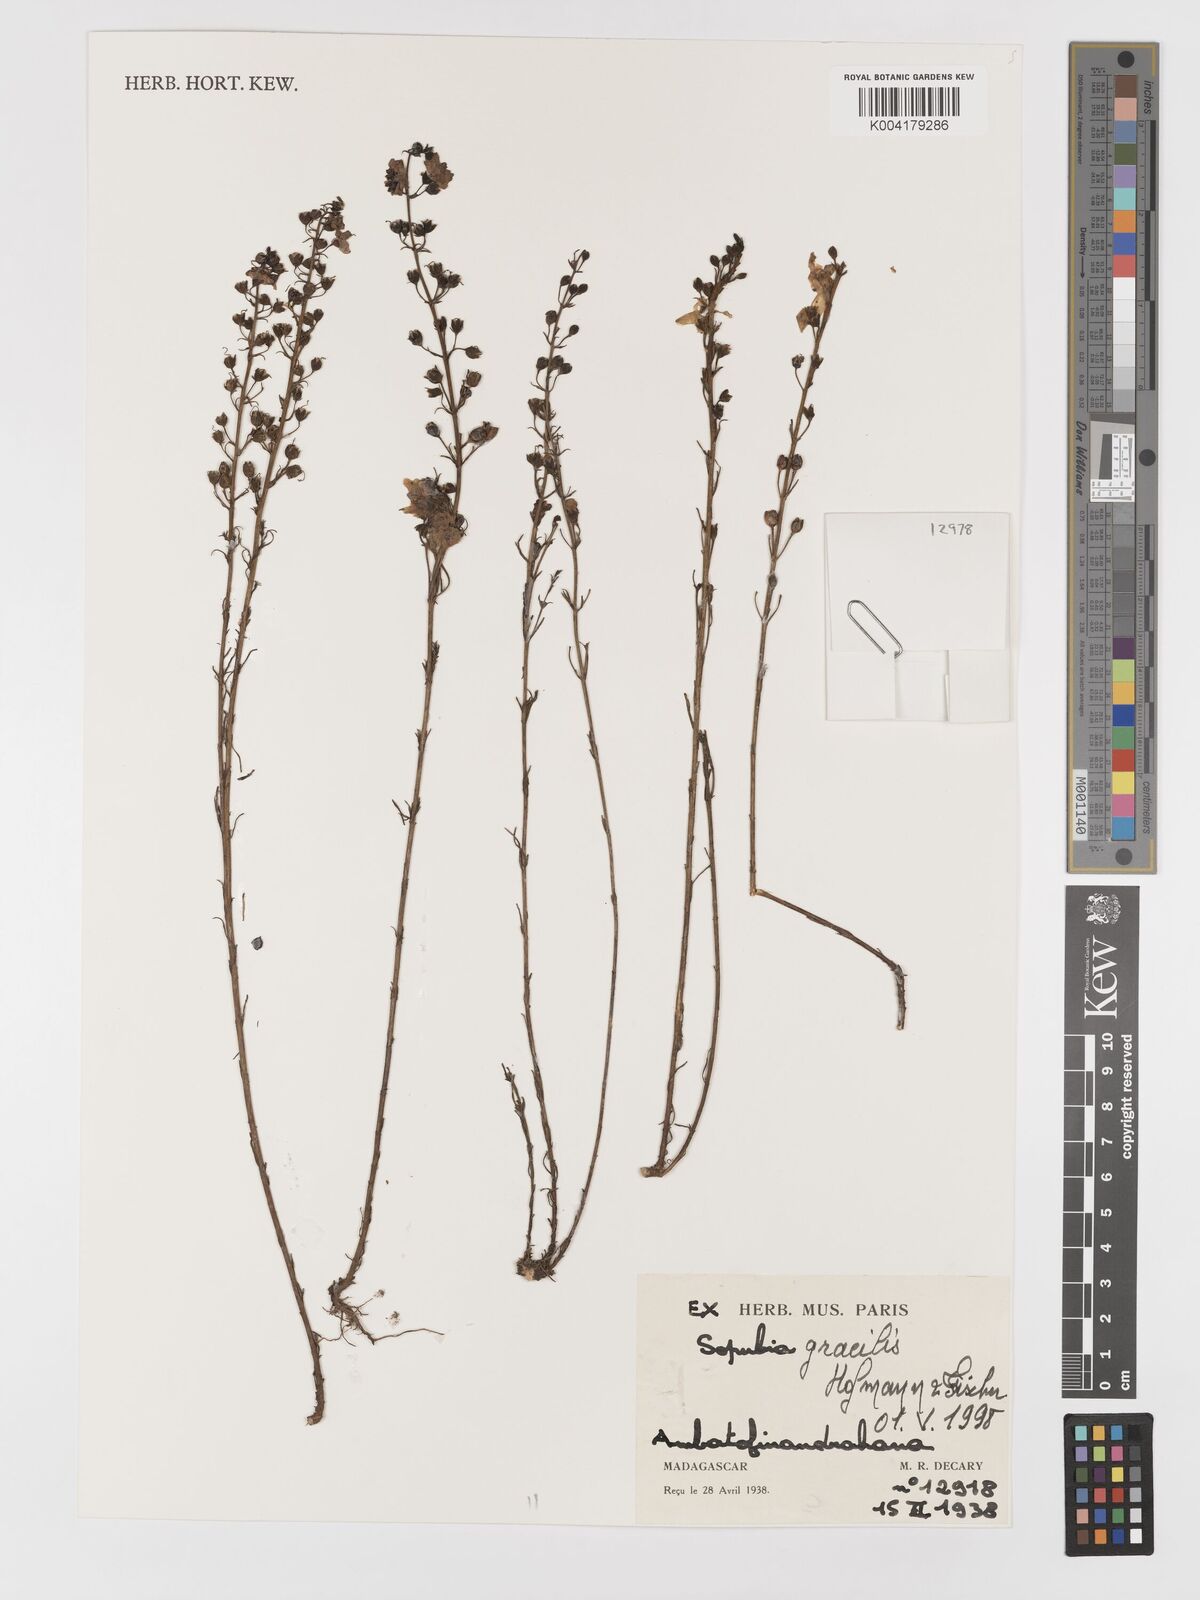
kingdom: Plantae
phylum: Tracheophyta
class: Magnoliopsida
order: Lamiales
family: Orobanchaceae
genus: Sopubia
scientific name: Sopubia gracilis
